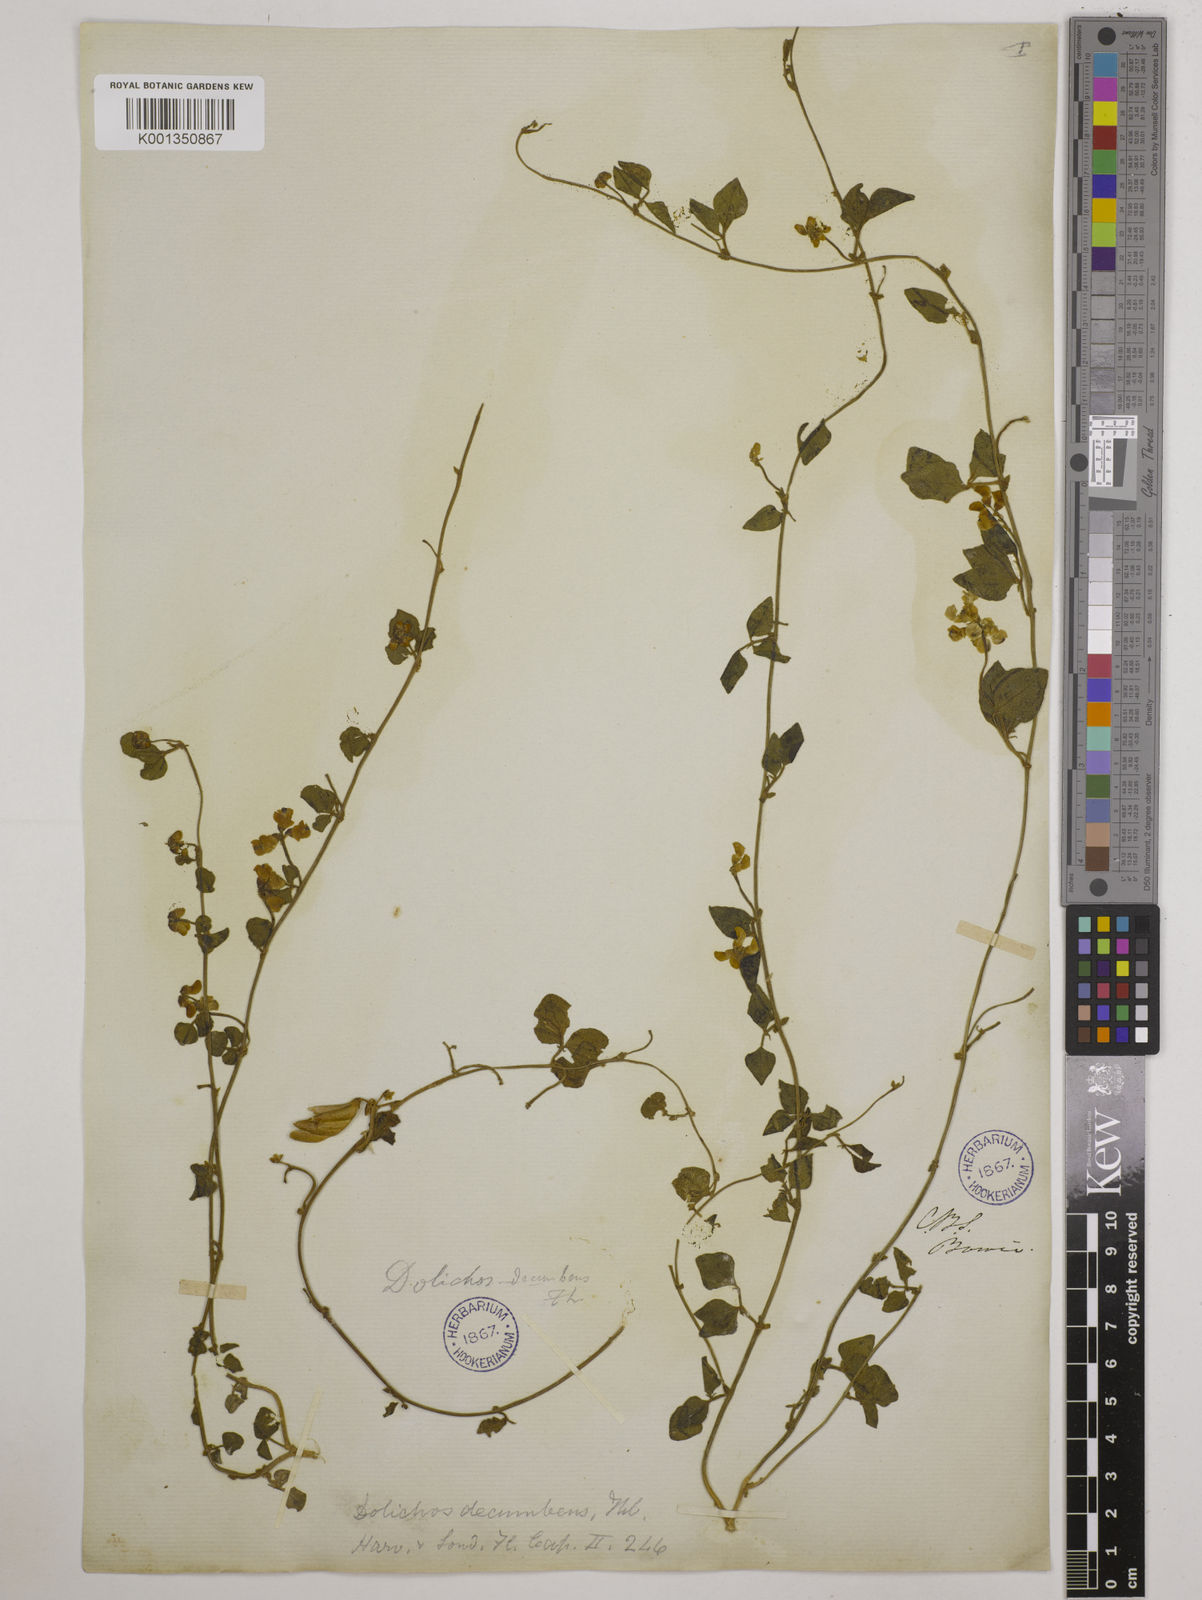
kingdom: Plantae
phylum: Tracheophyta
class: Magnoliopsida
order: Fabales
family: Fabaceae
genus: Dolichos
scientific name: Dolichos decumbens
